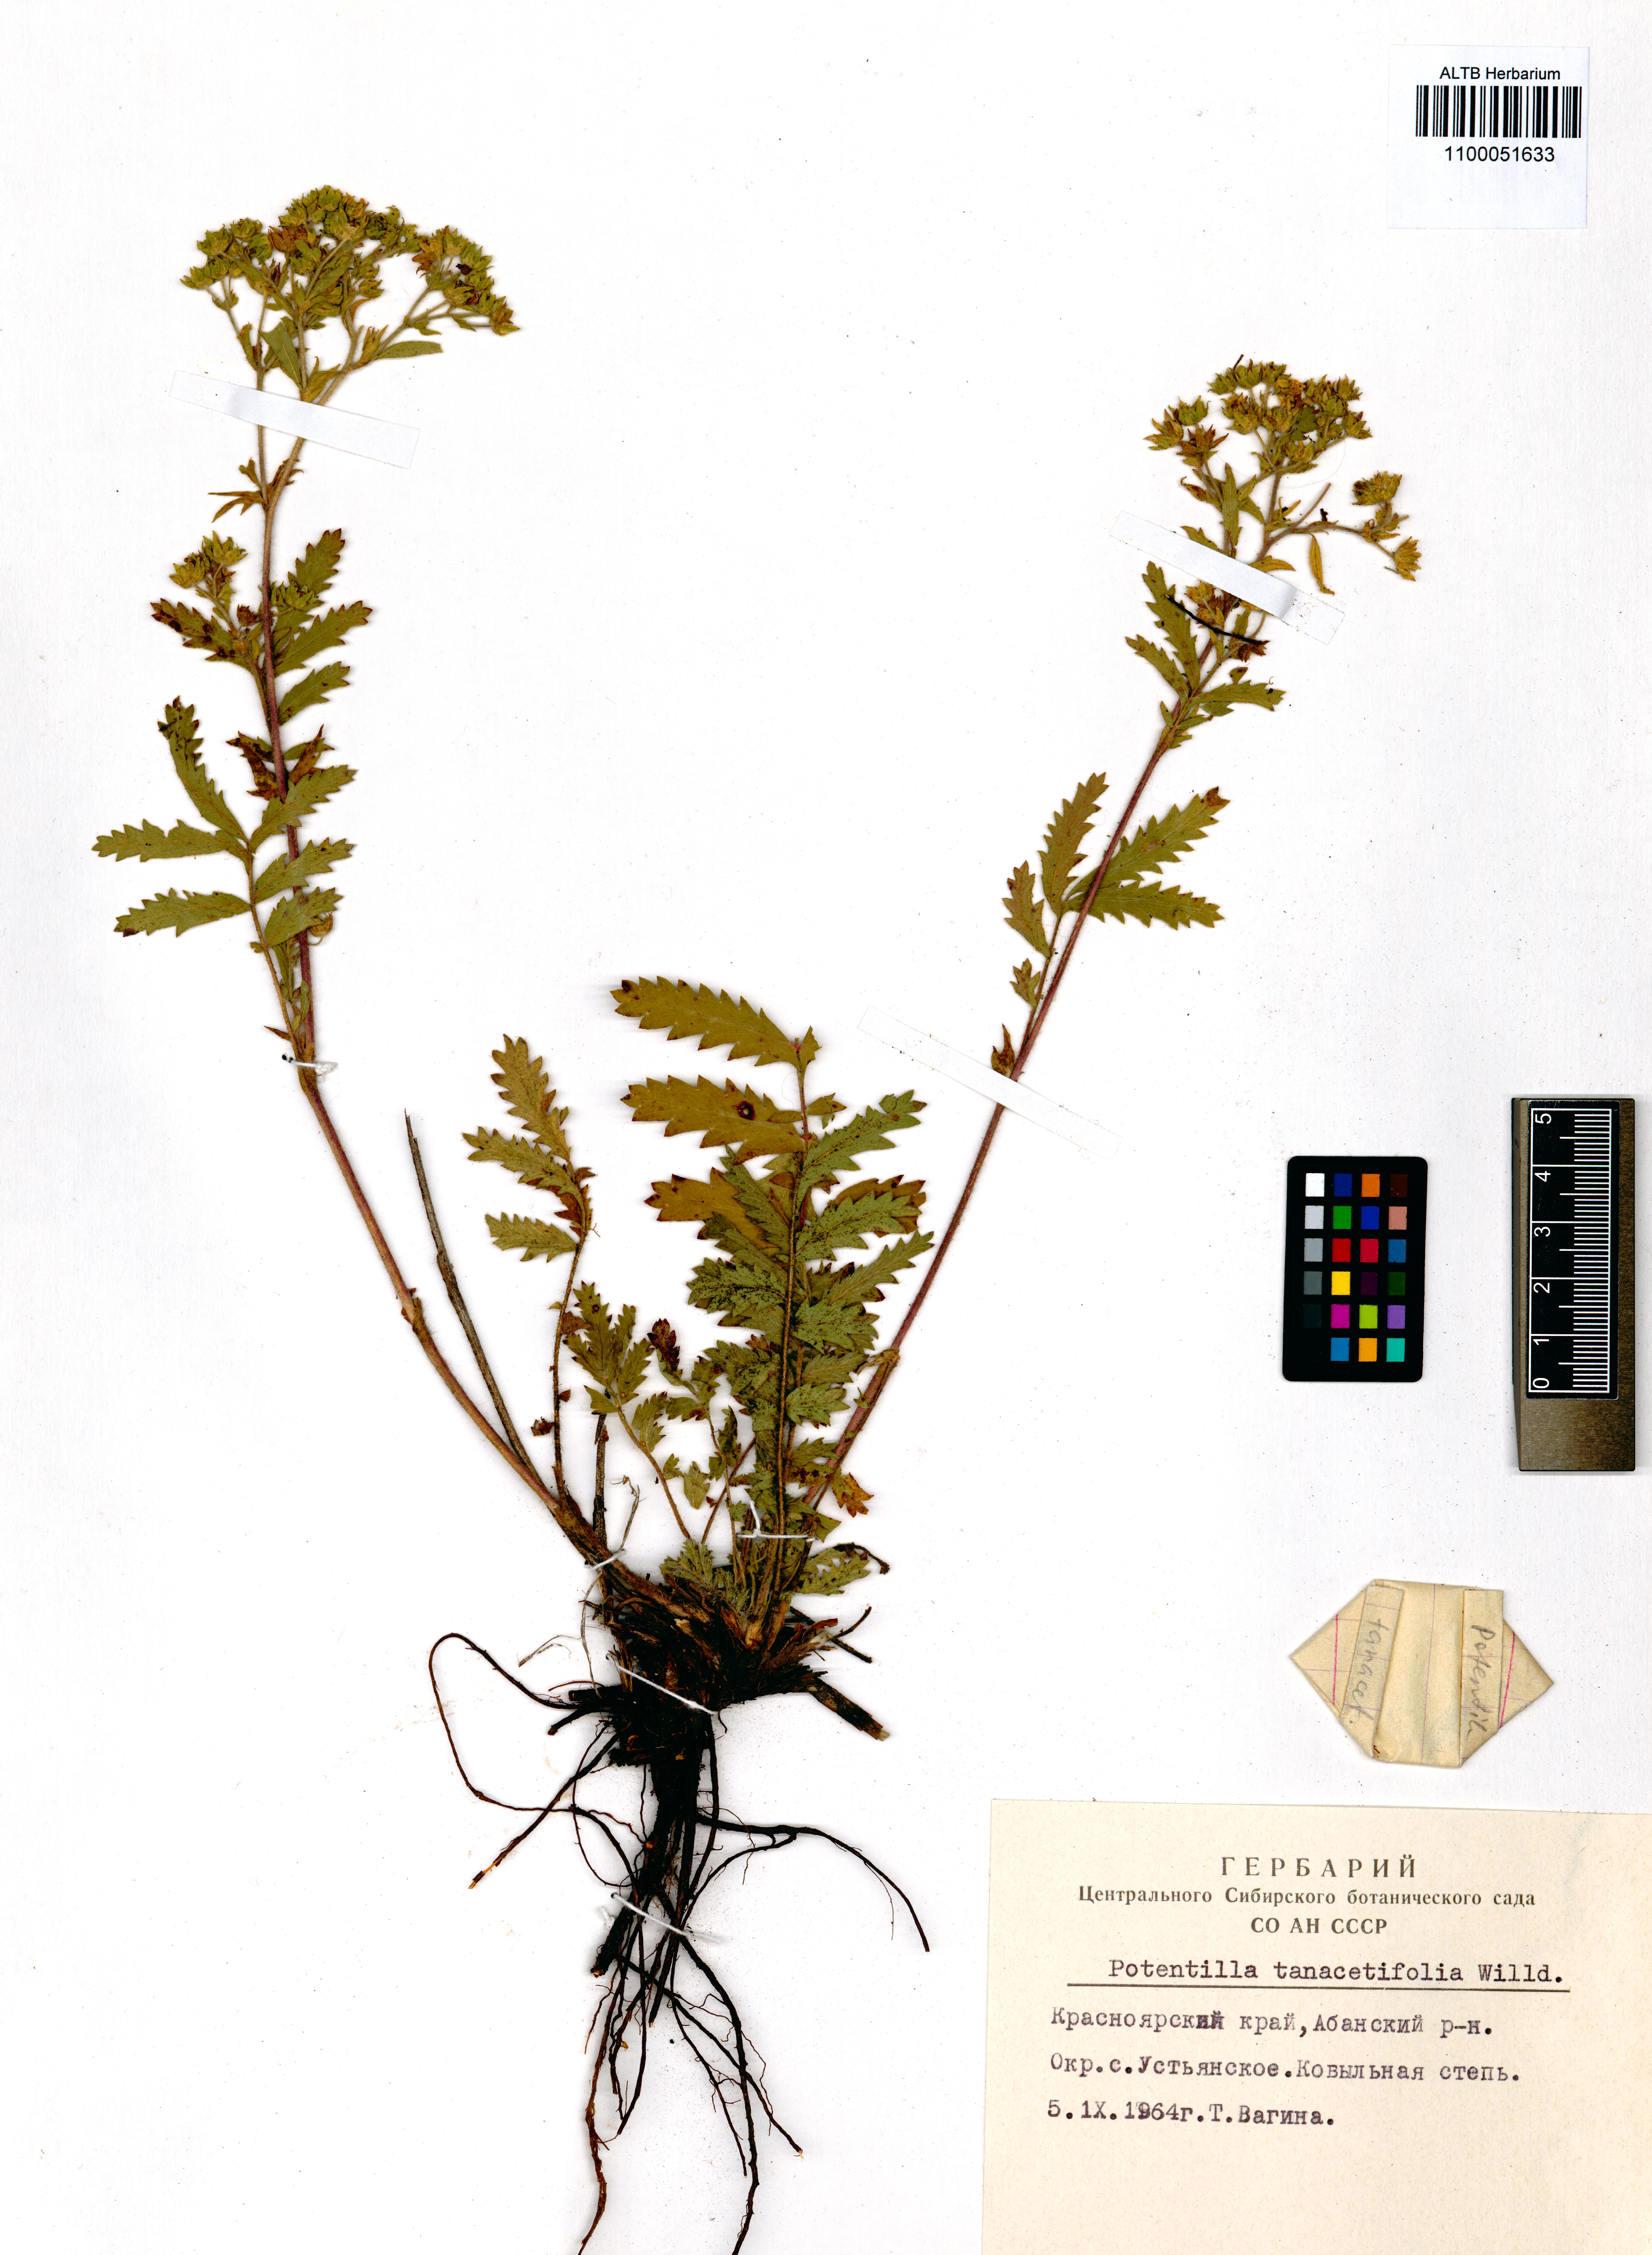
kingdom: Plantae
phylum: Tracheophyta
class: Magnoliopsida
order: Rosales
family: Rosaceae
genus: Potentilla
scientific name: Potentilla tanacetifolia
